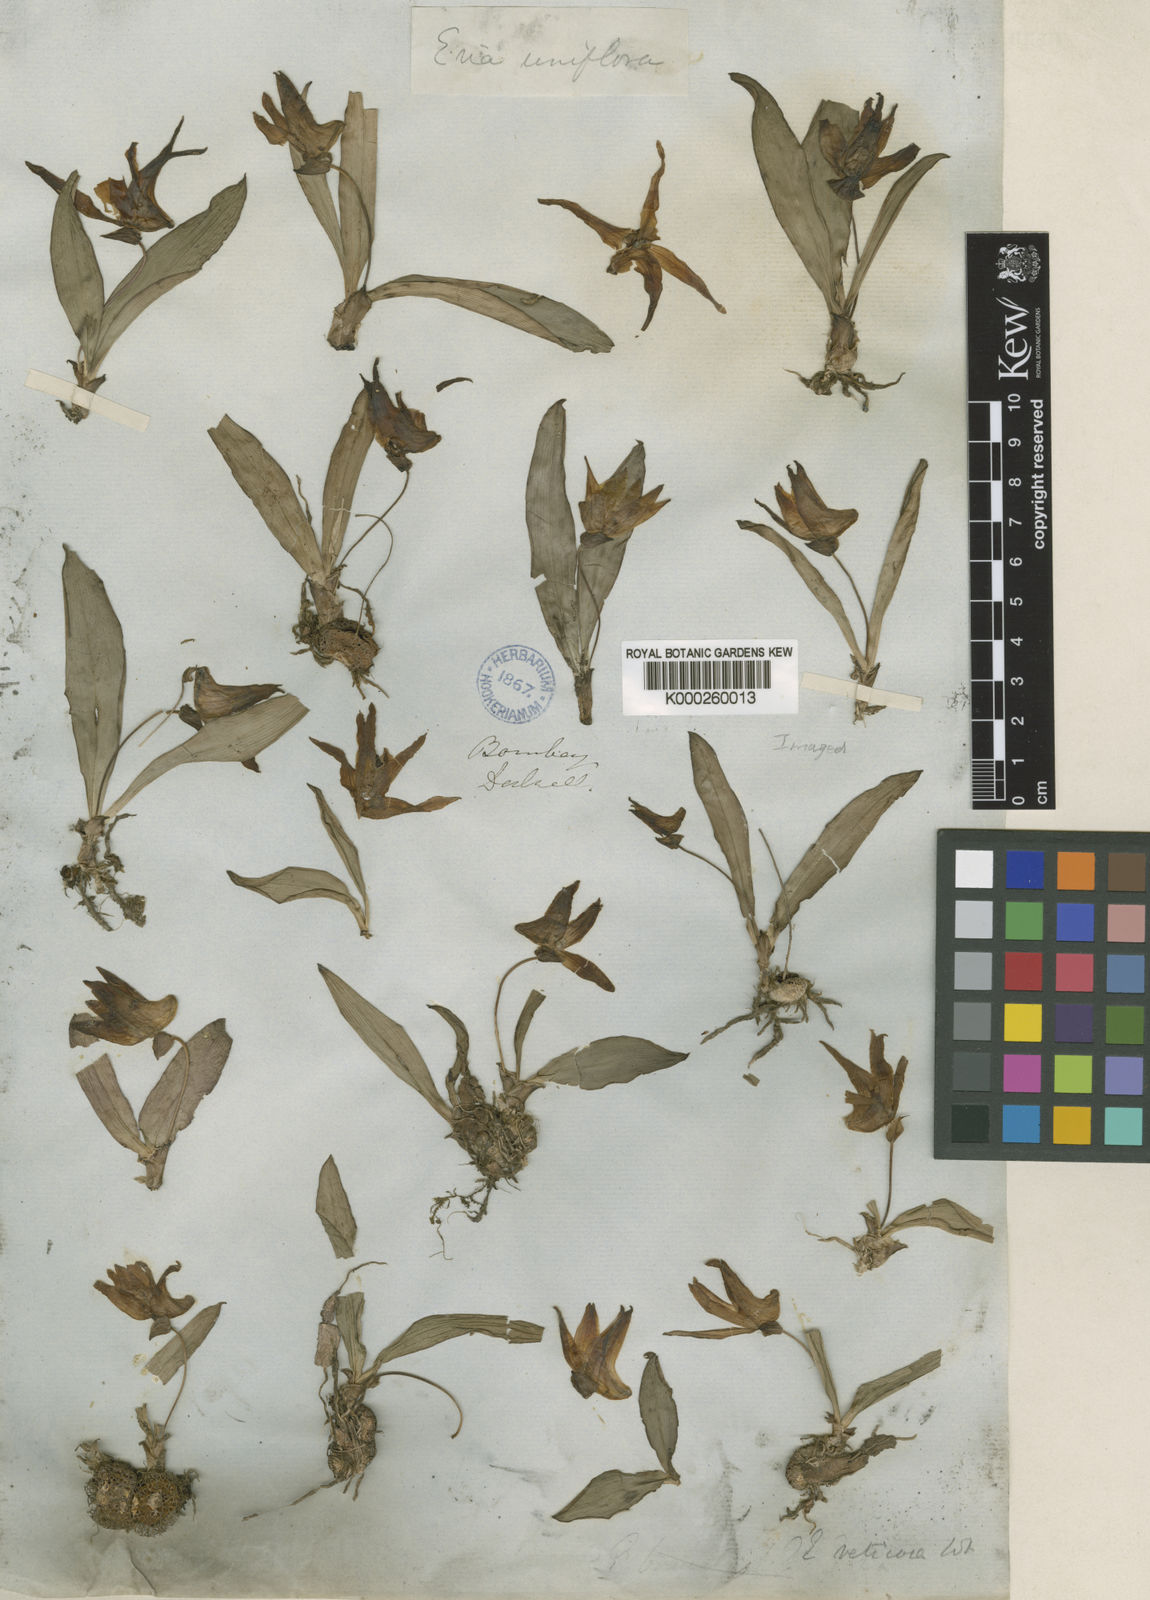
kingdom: Plantae
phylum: Tracheophyta
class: Liliopsida
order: Asparagales
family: Orchidaceae
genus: Porpax
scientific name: Porpax braccata
